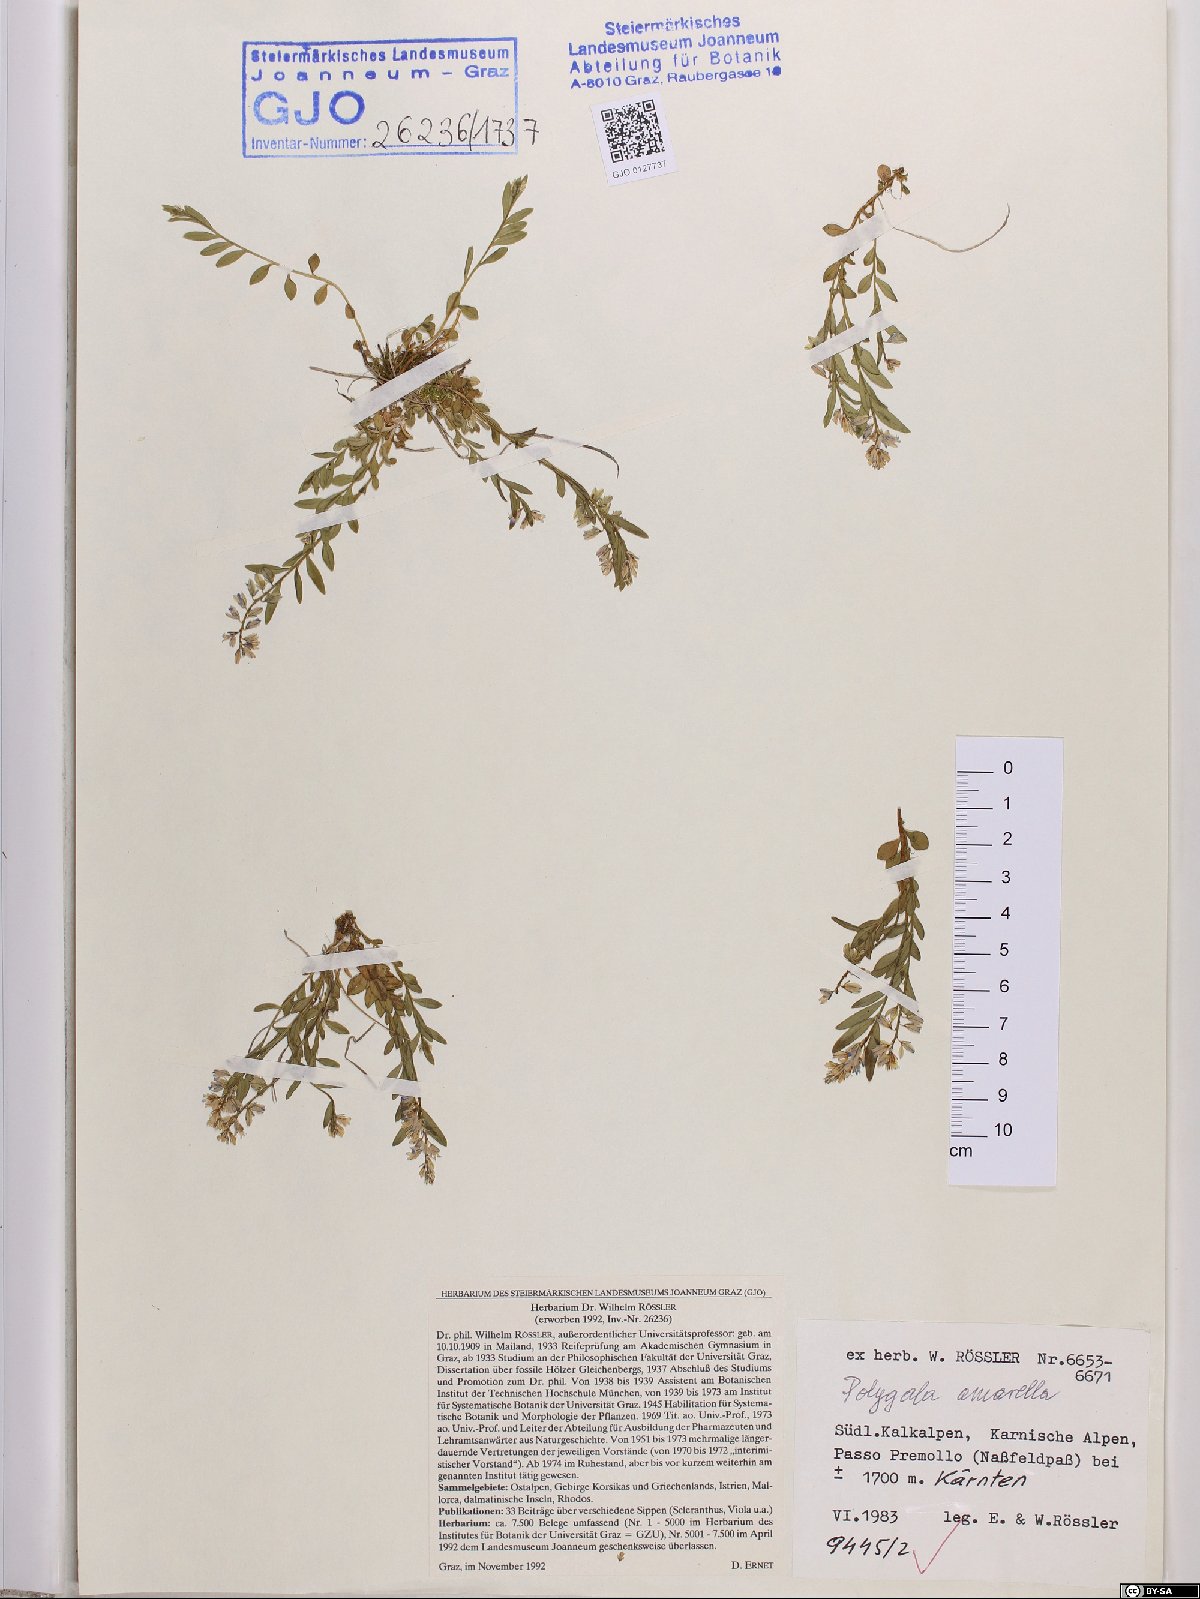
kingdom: Plantae
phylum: Tracheophyta
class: Magnoliopsida
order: Fabales
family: Polygalaceae
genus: Polygala
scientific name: Polygala amarella
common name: Dwarf milkwort
